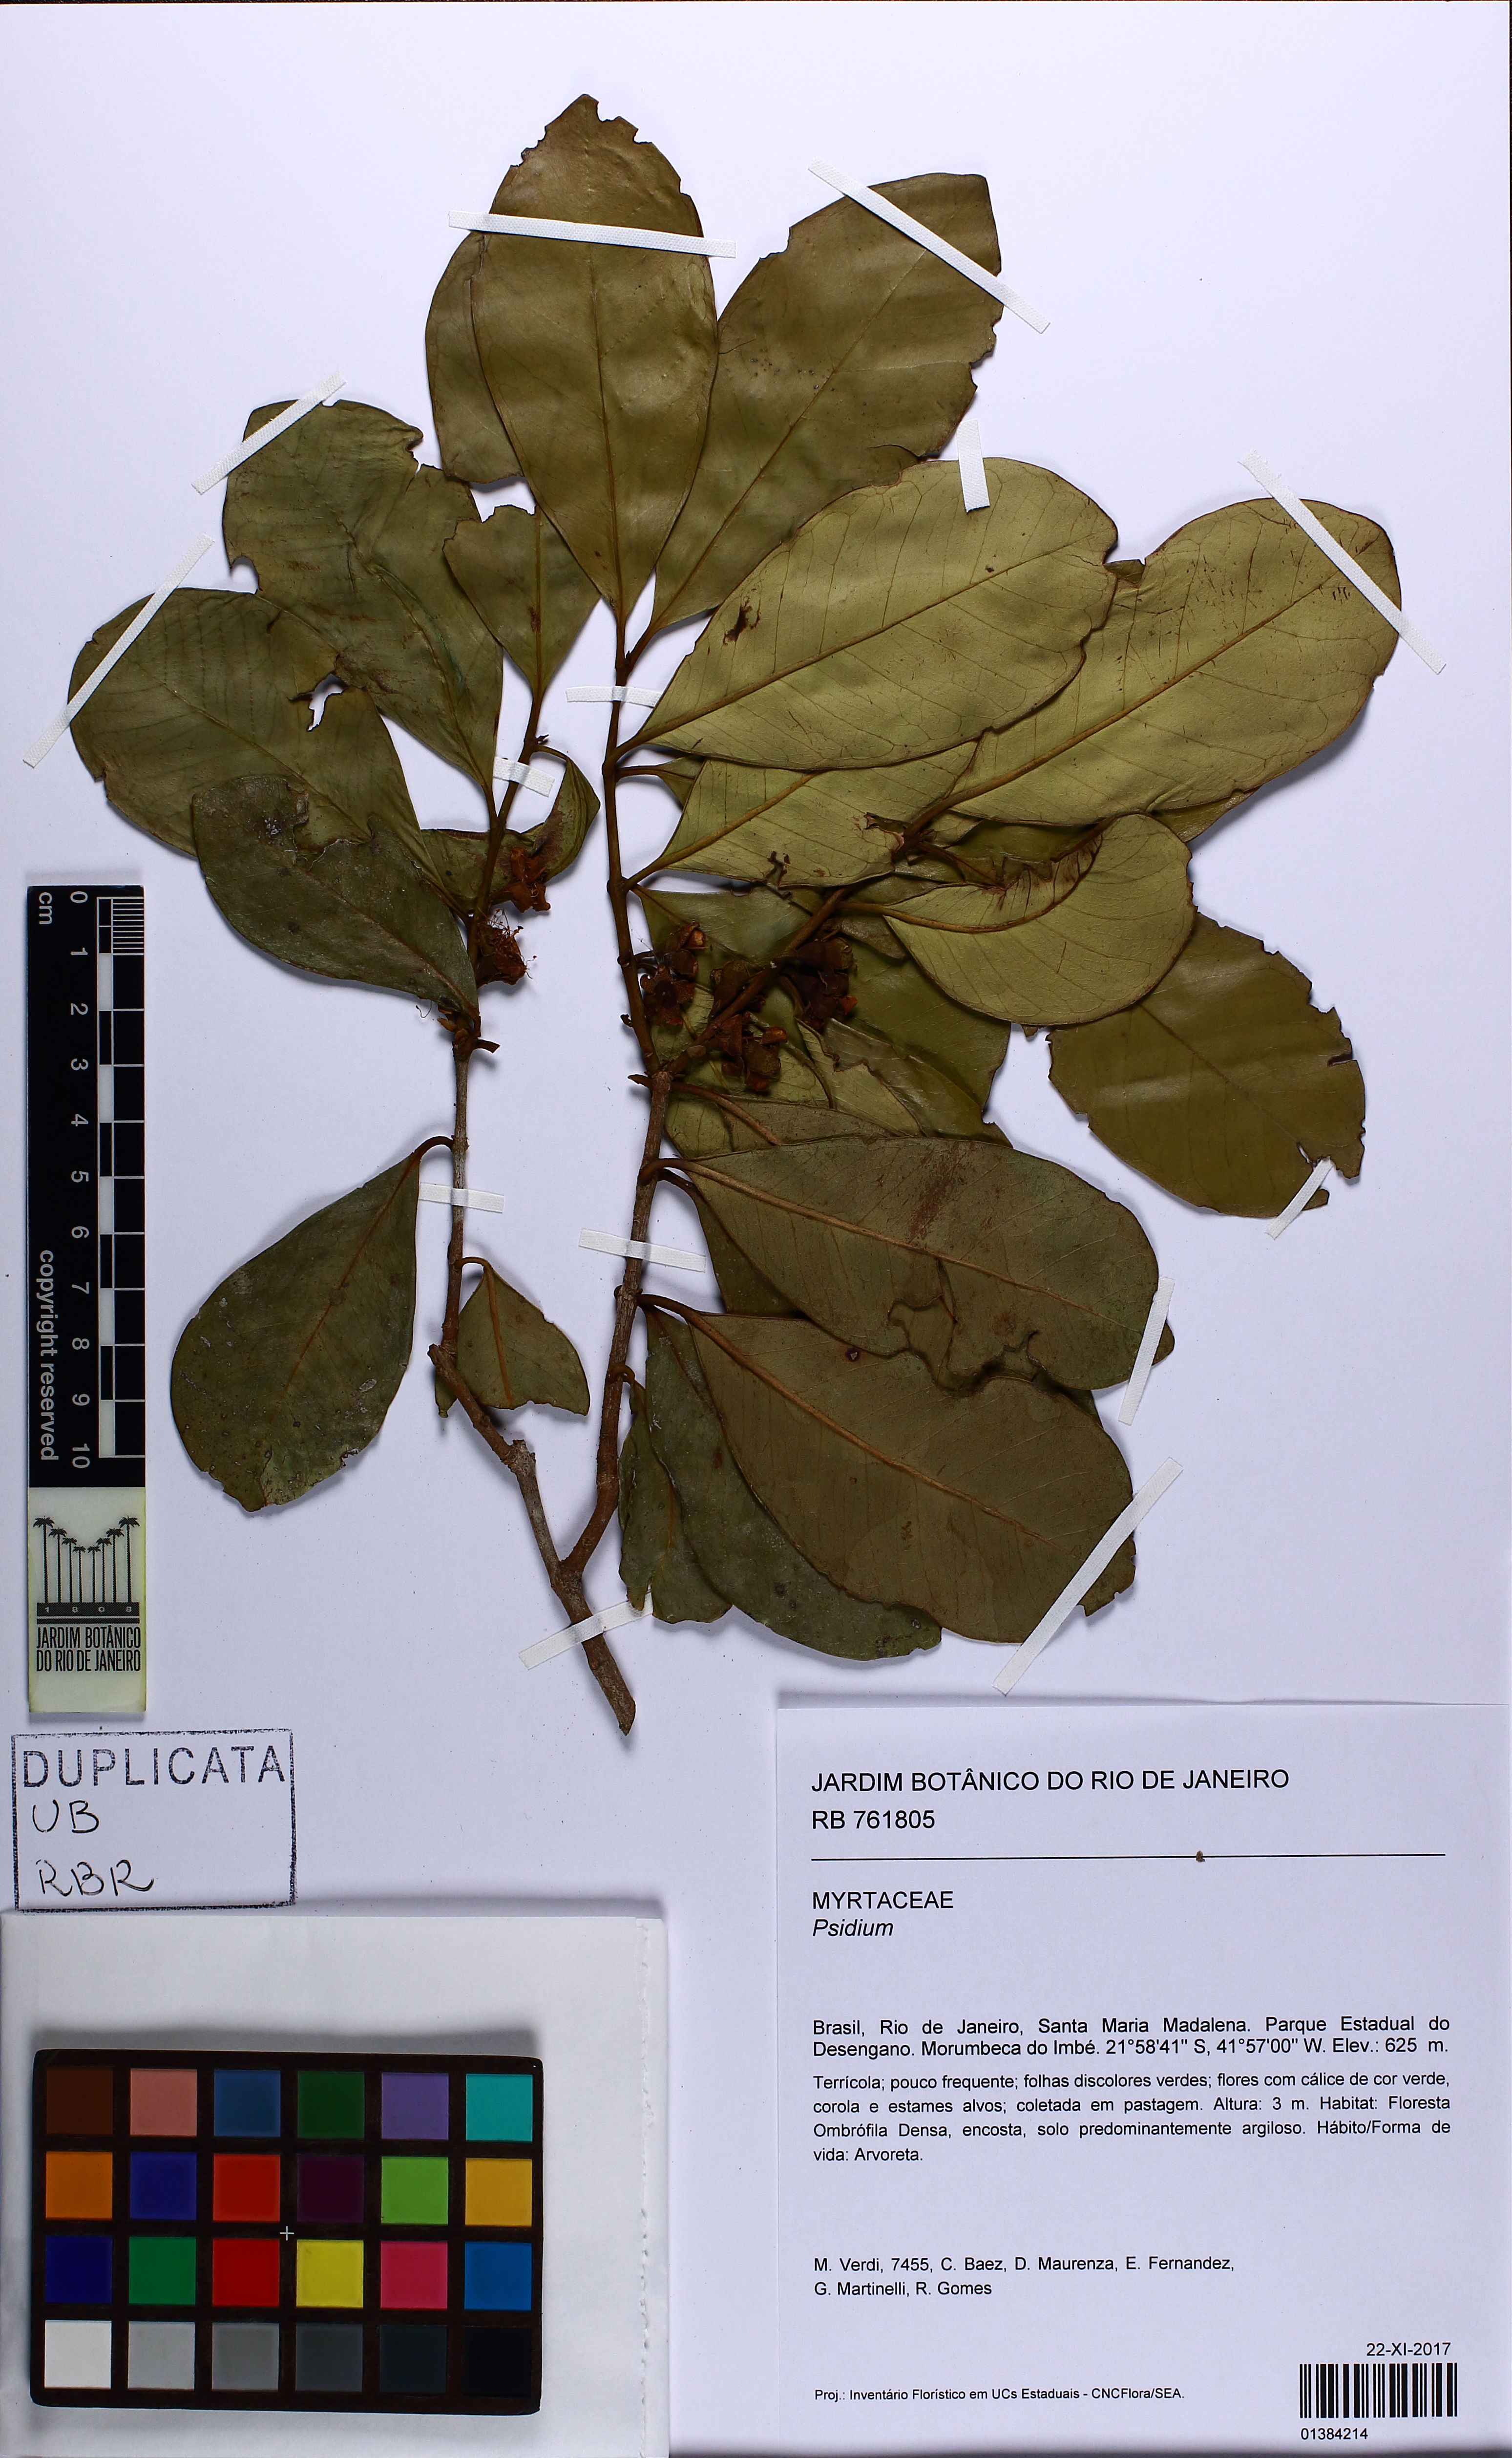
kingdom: Plantae
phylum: Tracheophyta
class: Magnoliopsida
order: Myrtales
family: Myrtaceae
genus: Psidium
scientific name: Psidium cattleianum
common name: Strawberry guava
